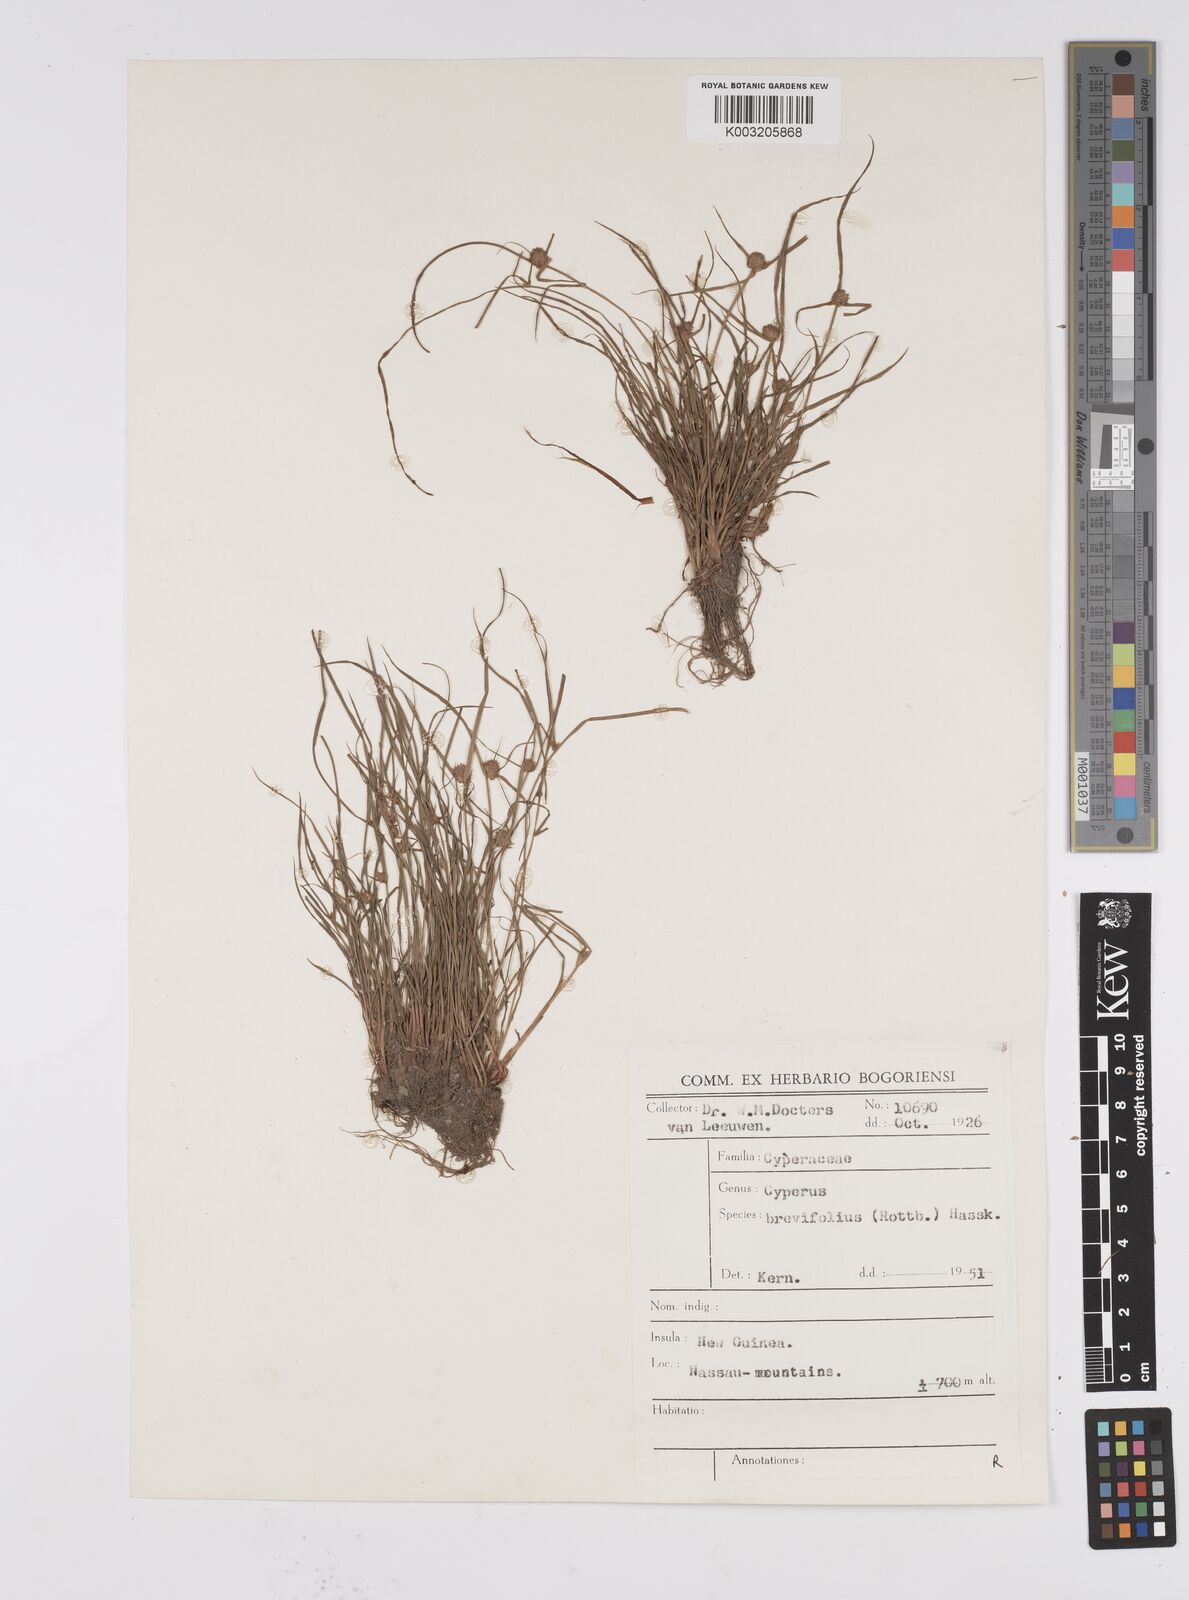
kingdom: Plantae
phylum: Tracheophyta
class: Liliopsida
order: Poales
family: Cyperaceae
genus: Cyperus
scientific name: Cyperus brevifolius
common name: Globe kyllinga
